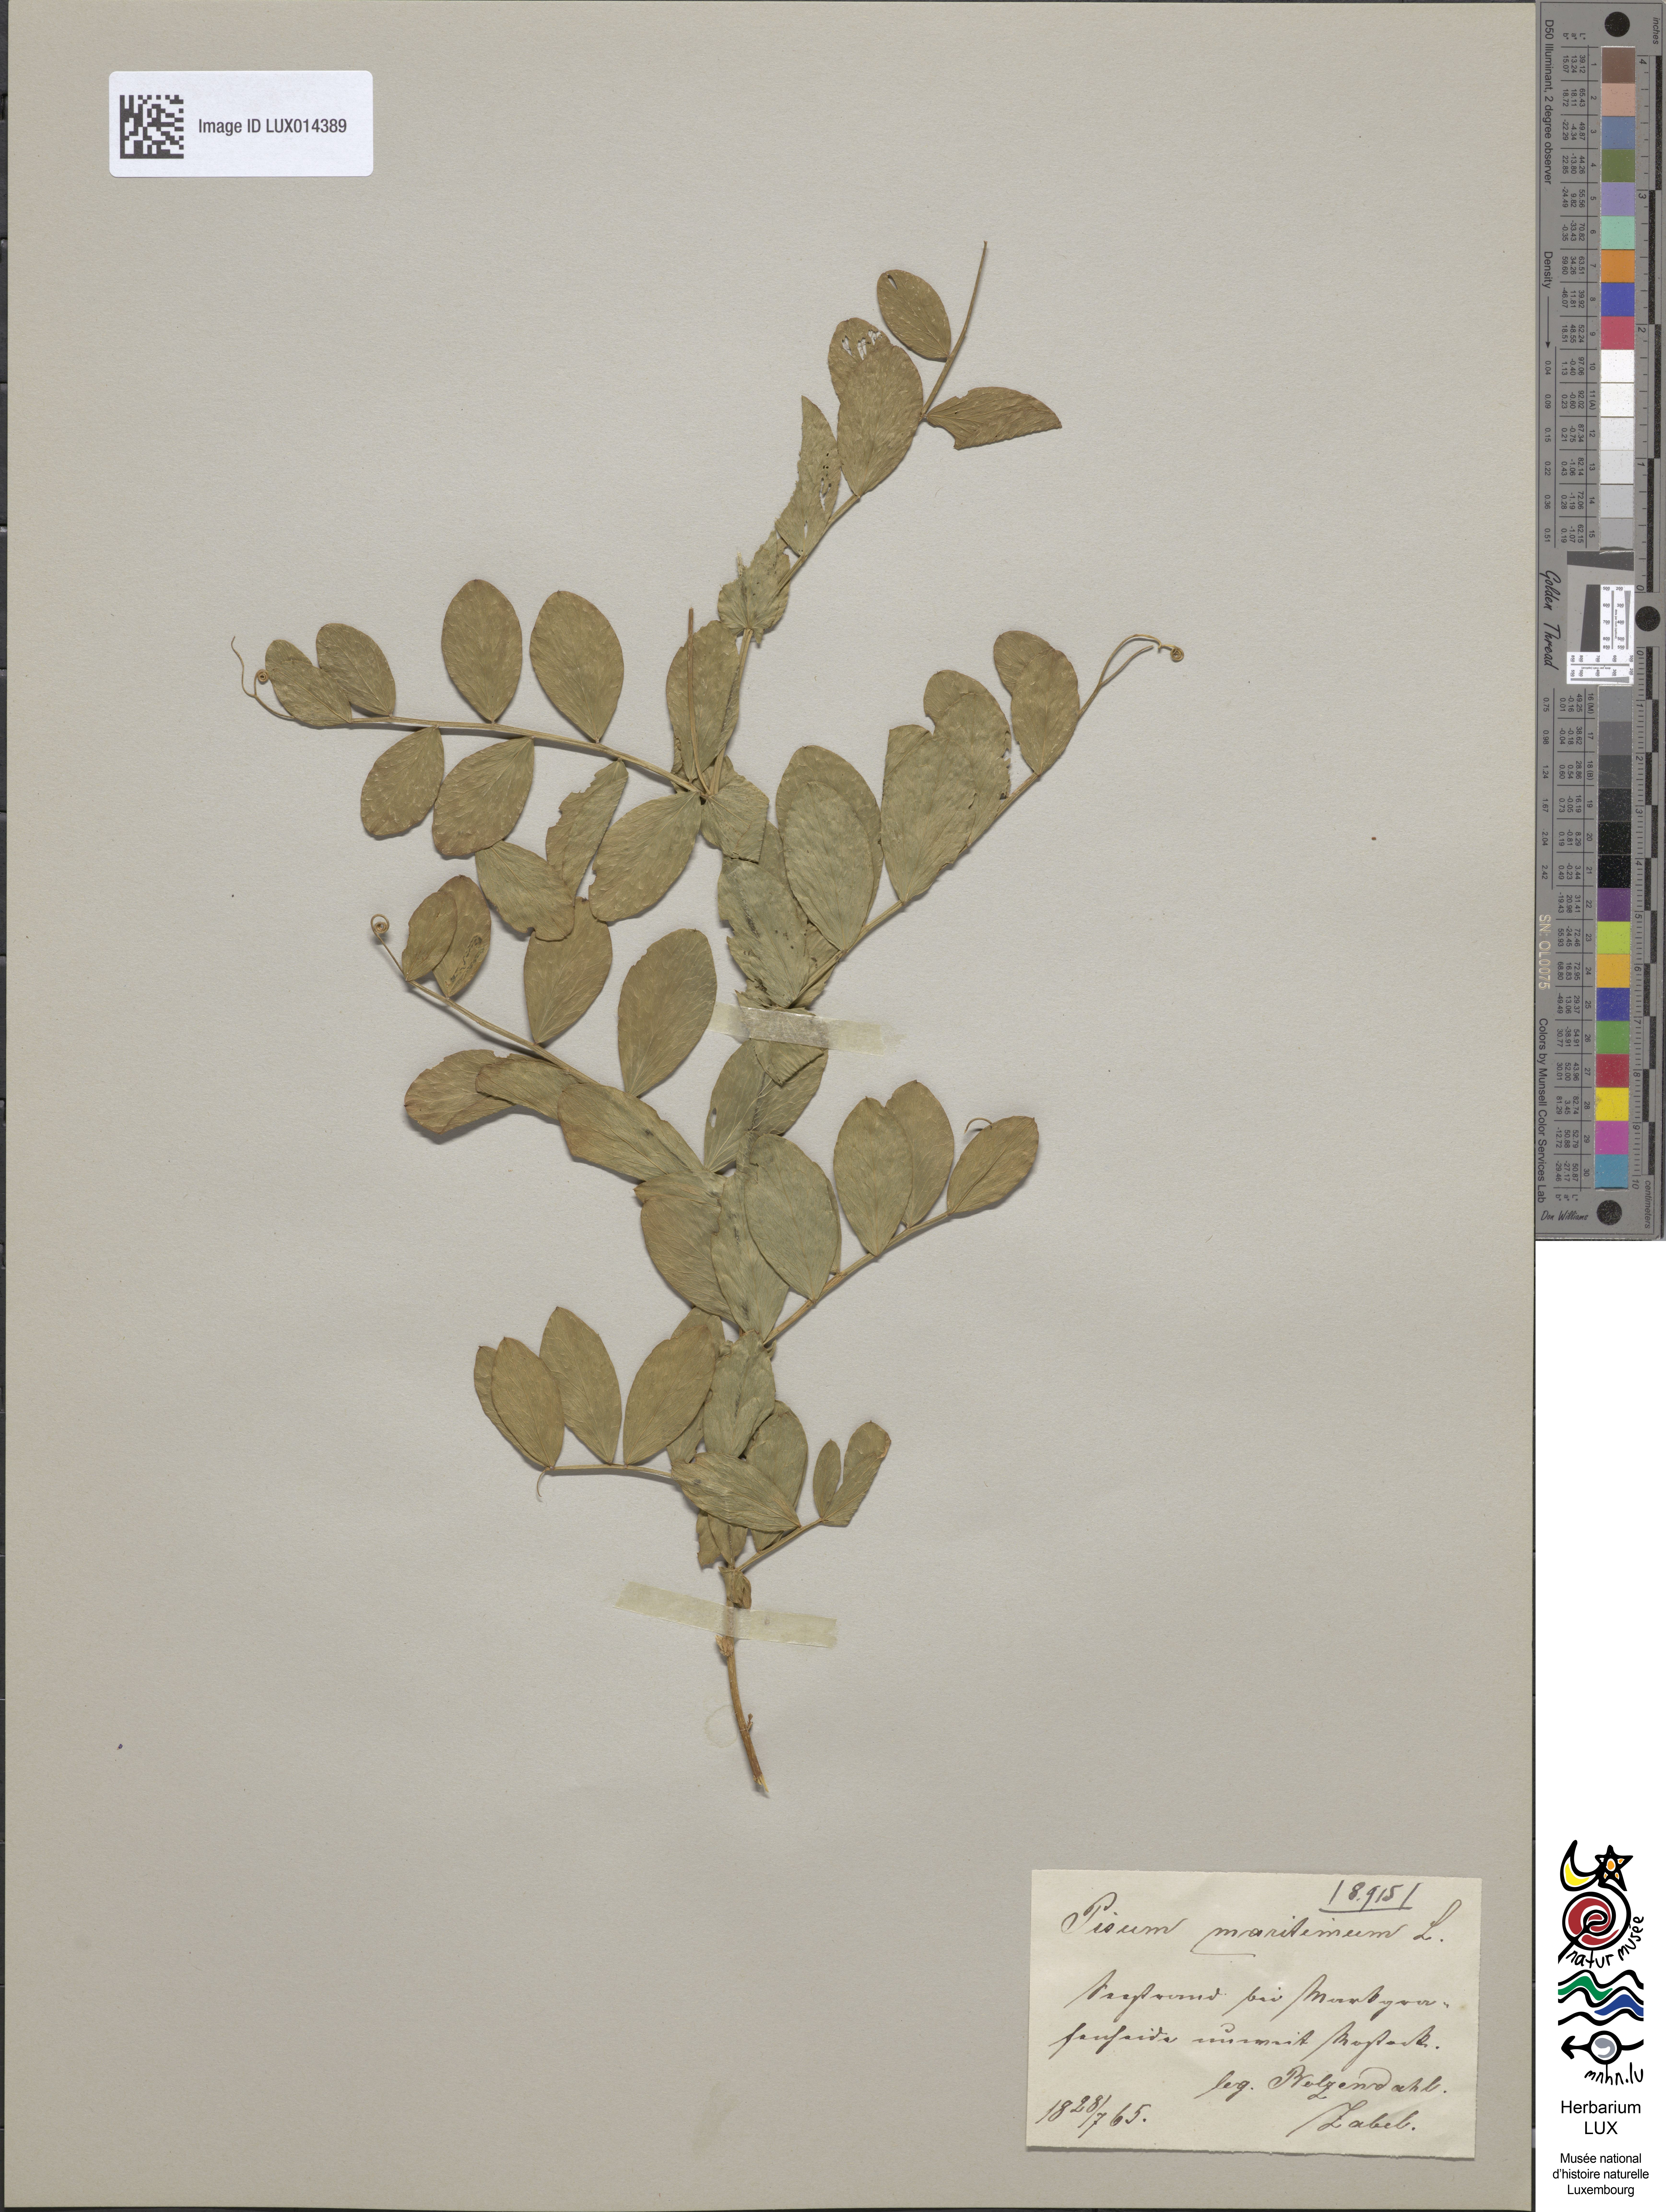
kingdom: Plantae
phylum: Tracheophyta
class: Magnoliopsida
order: Fabales
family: Fabaceae
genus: Lathyrus
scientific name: Lathyrus japonicus
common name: Sea pea
